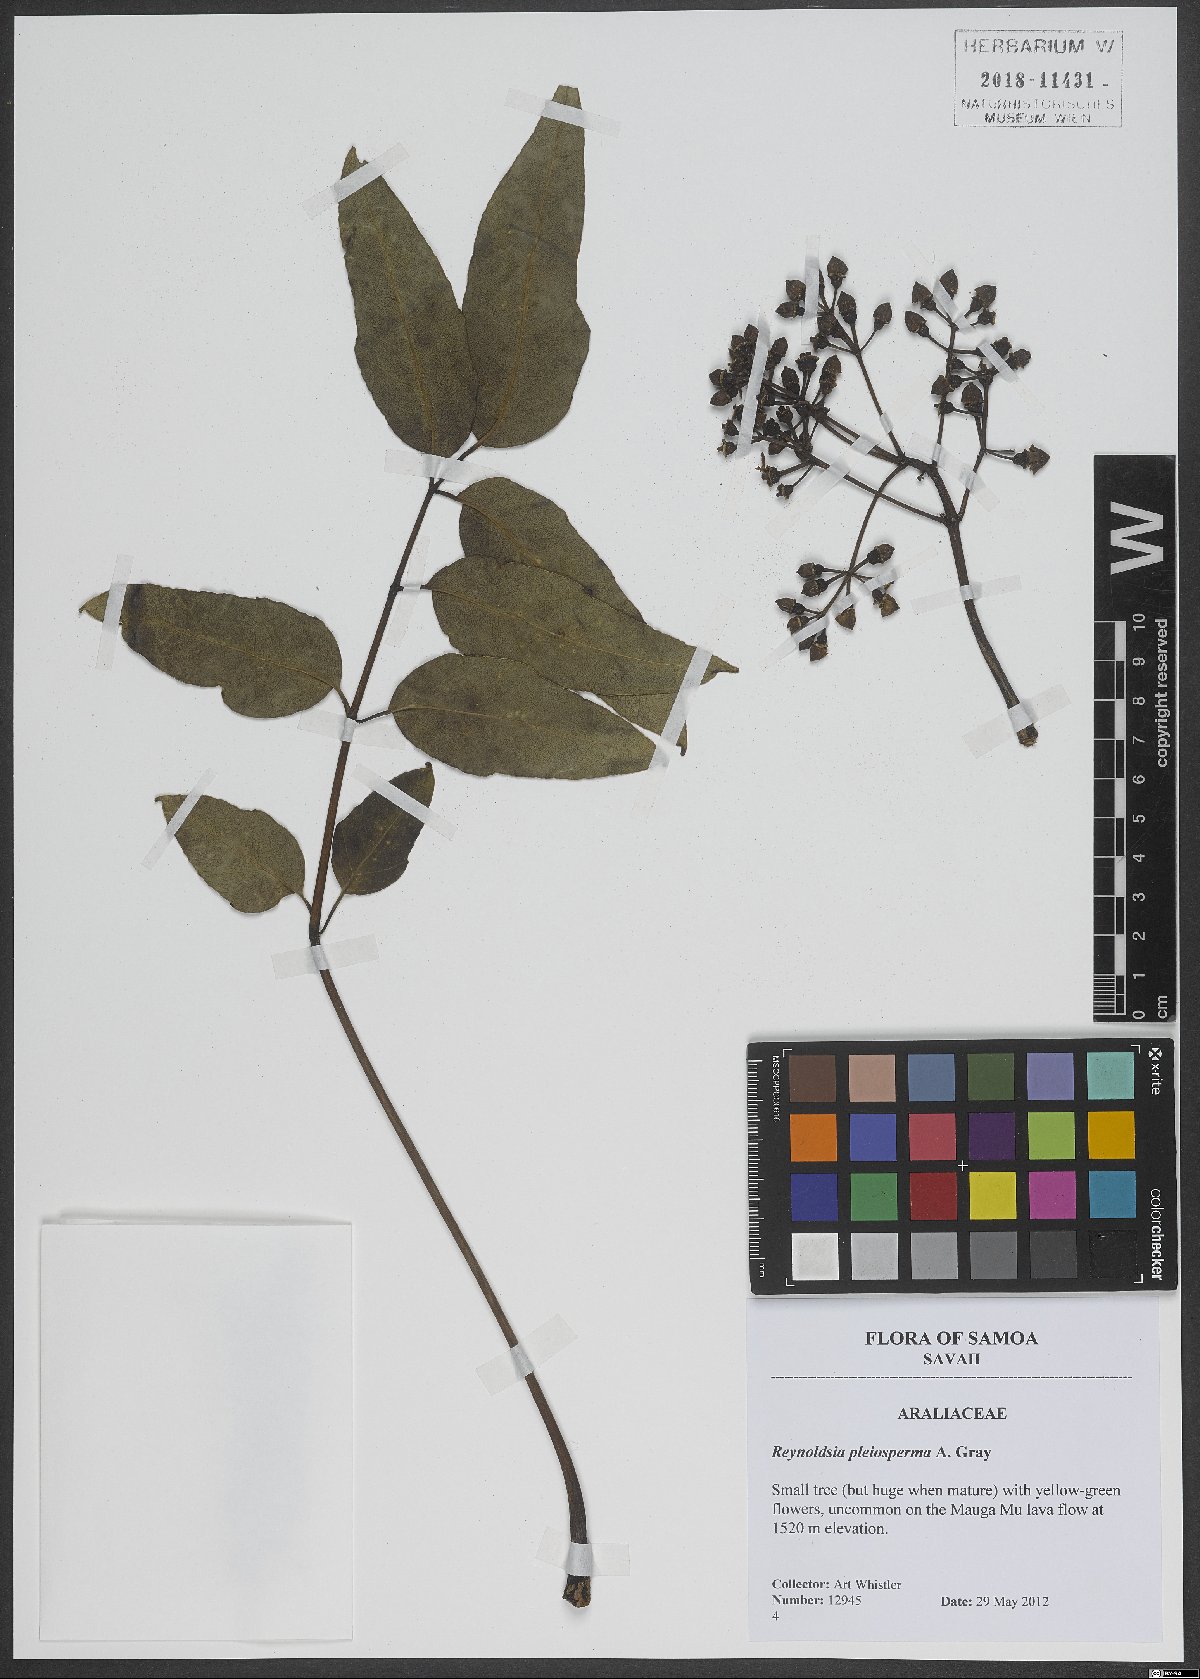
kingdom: Plantae
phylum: Tracheophyta
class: Magnoliopsida
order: Apiales
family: Araliaceae
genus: Polyscias
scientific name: Polyscias pleiosperma
